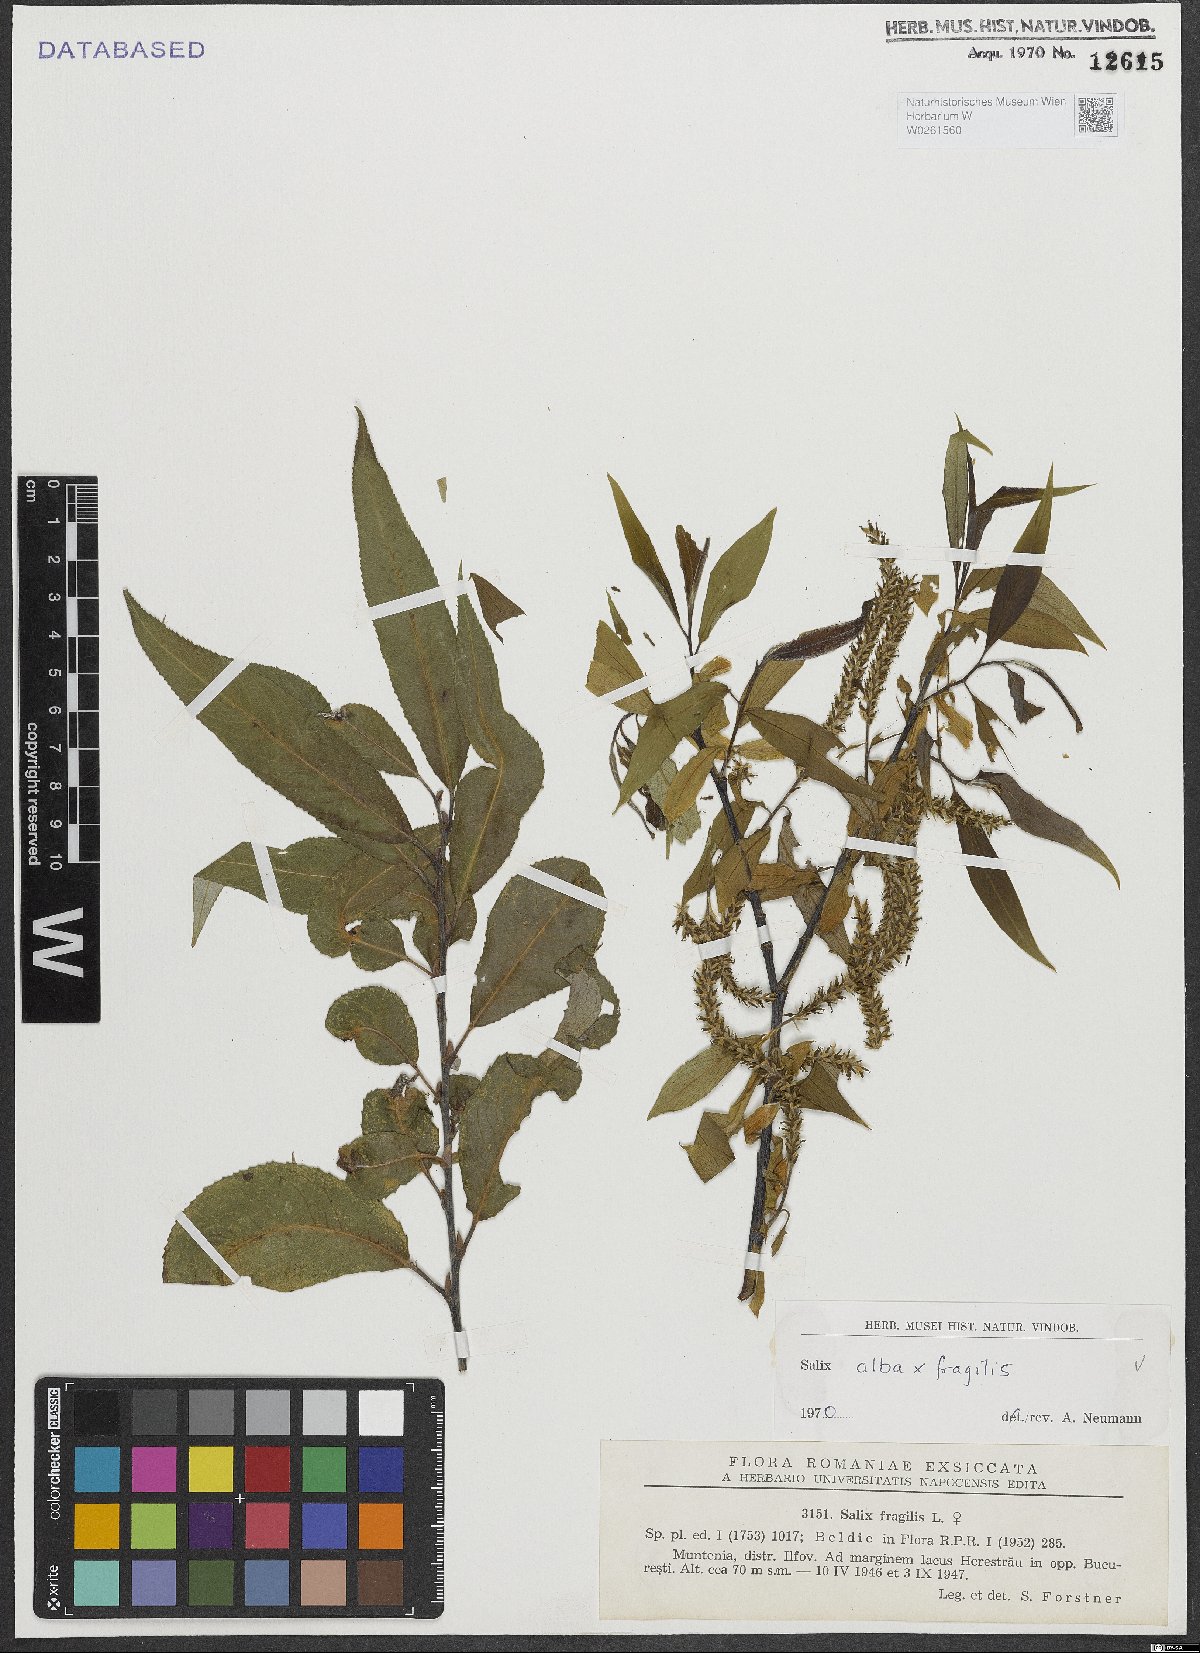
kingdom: Plantae
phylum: Tracheophyta
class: Magnoliopsida
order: Malpighiales
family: Salicaceae
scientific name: Salicaceae
